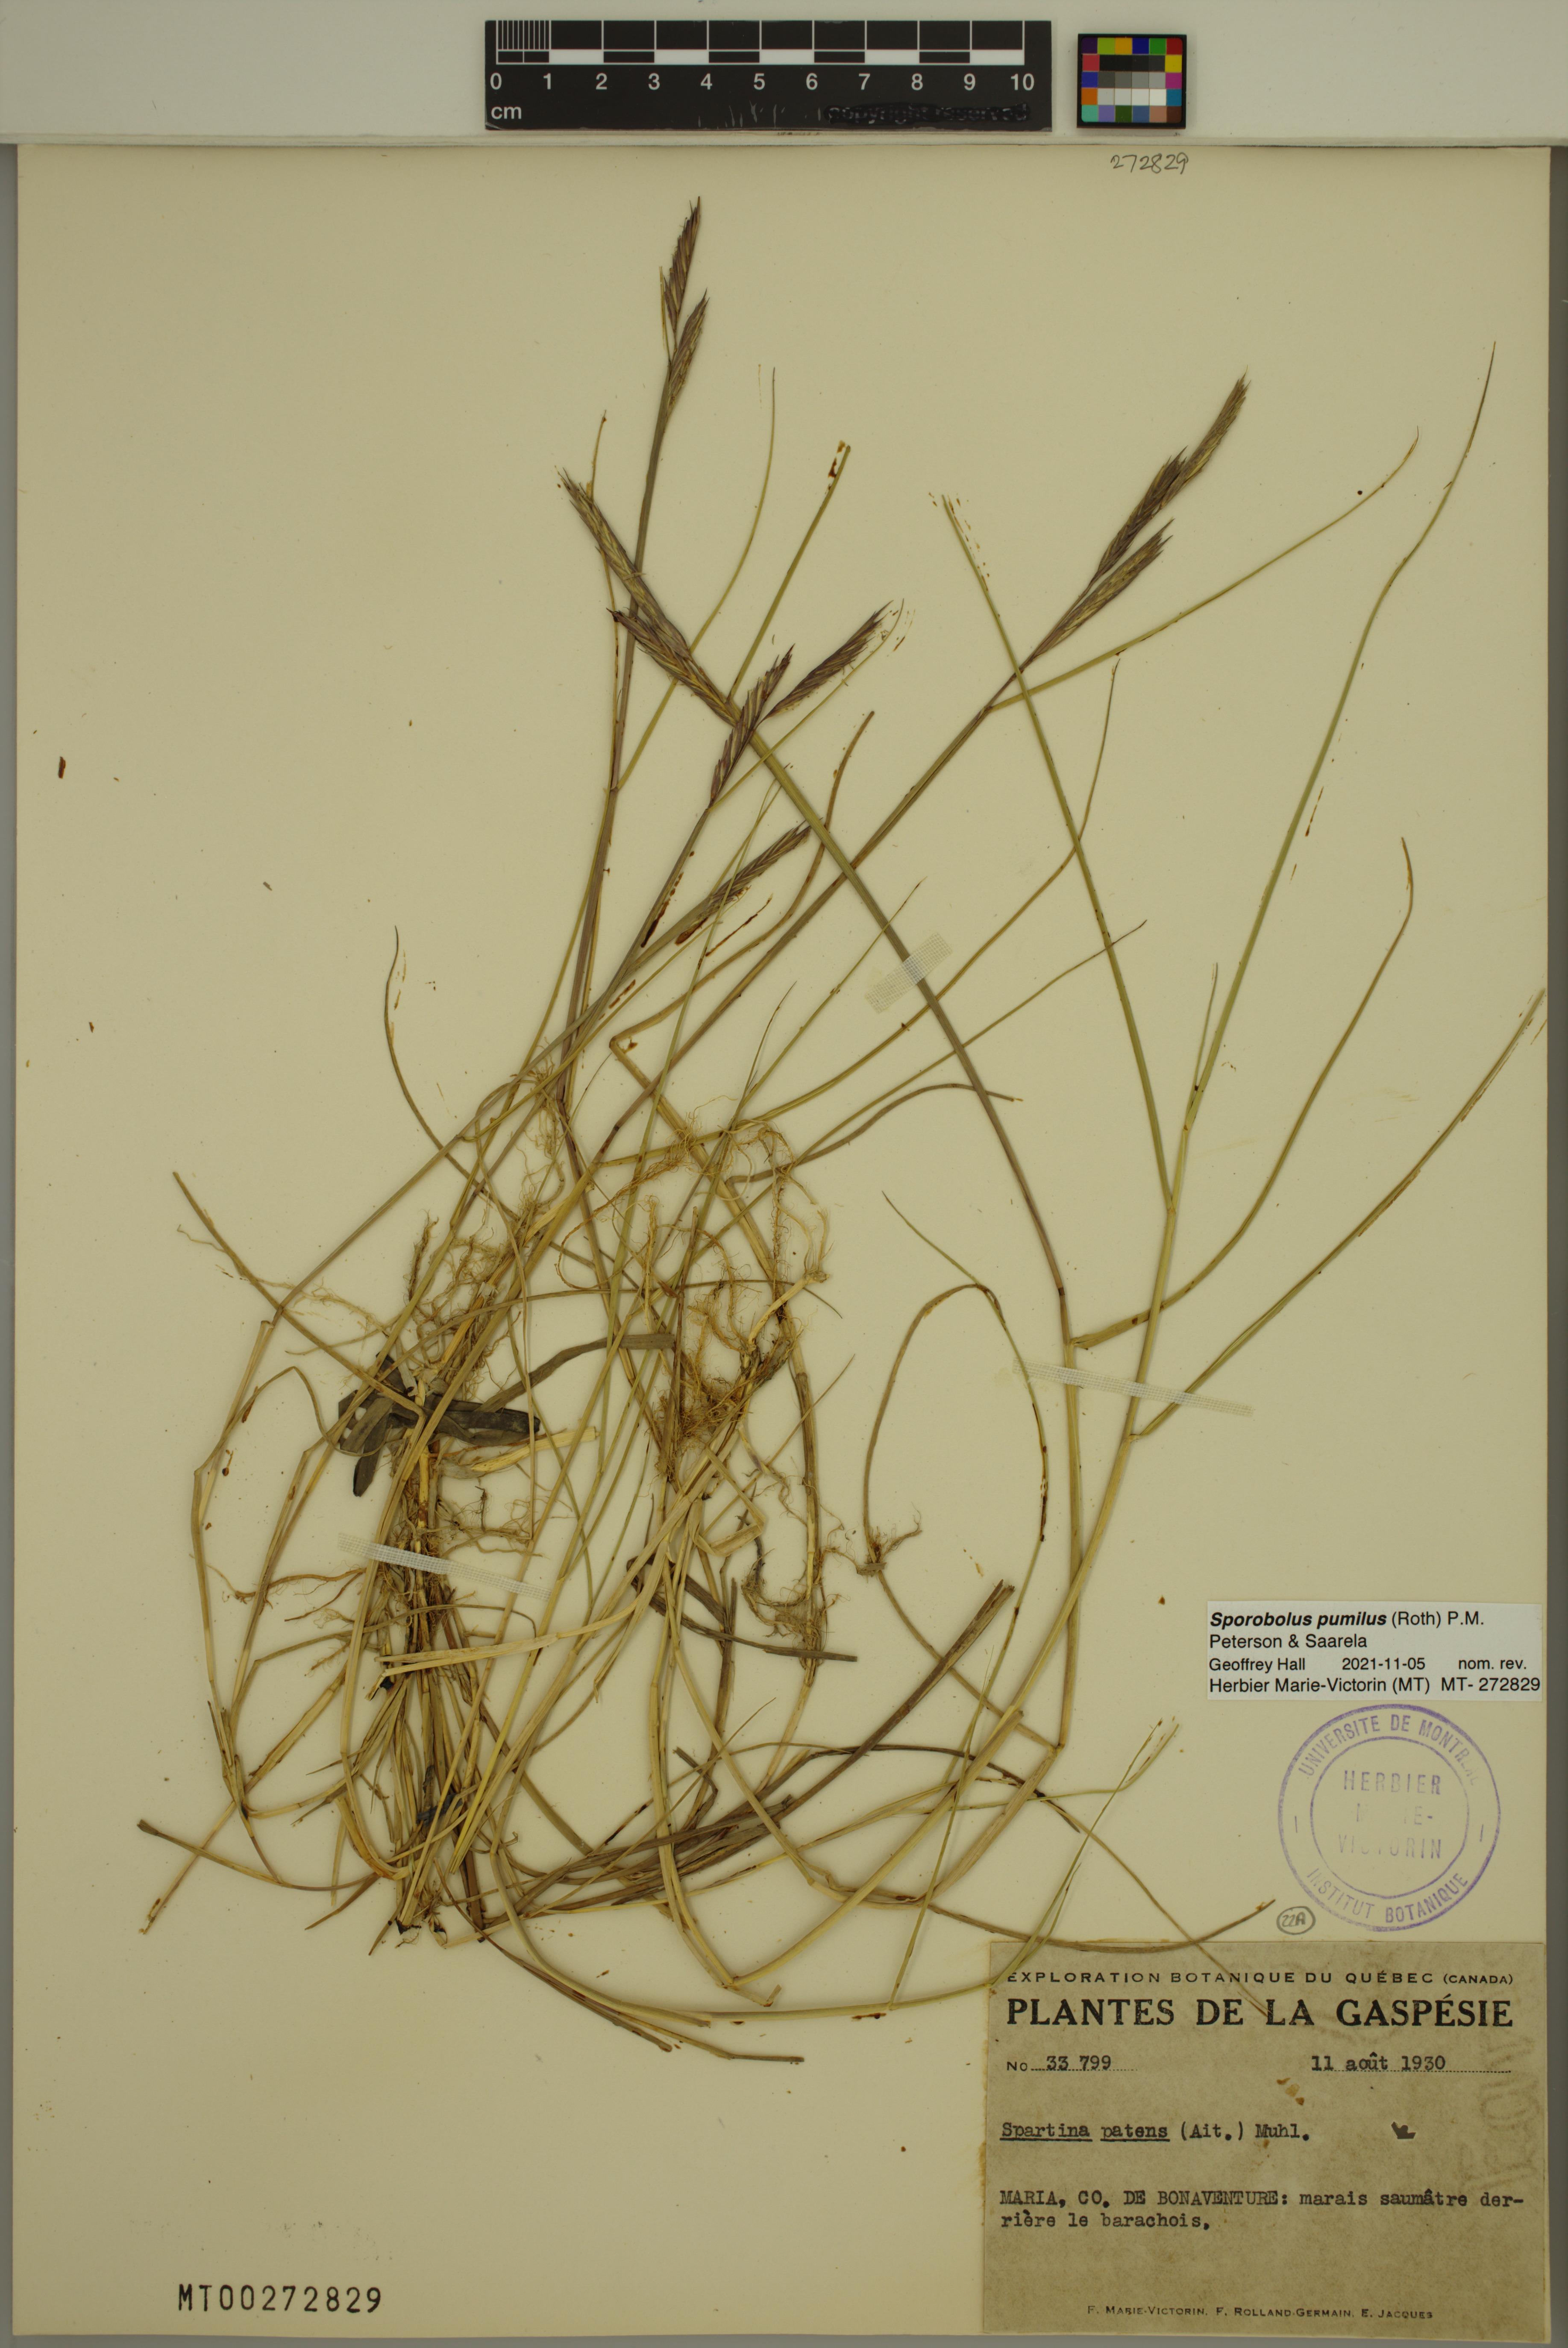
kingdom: Plantae
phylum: Tracheophyta
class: Liliopsida
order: Poales
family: Poaceae
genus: Sporobolus
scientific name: Sporobolus pumilus
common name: Highwater grass
